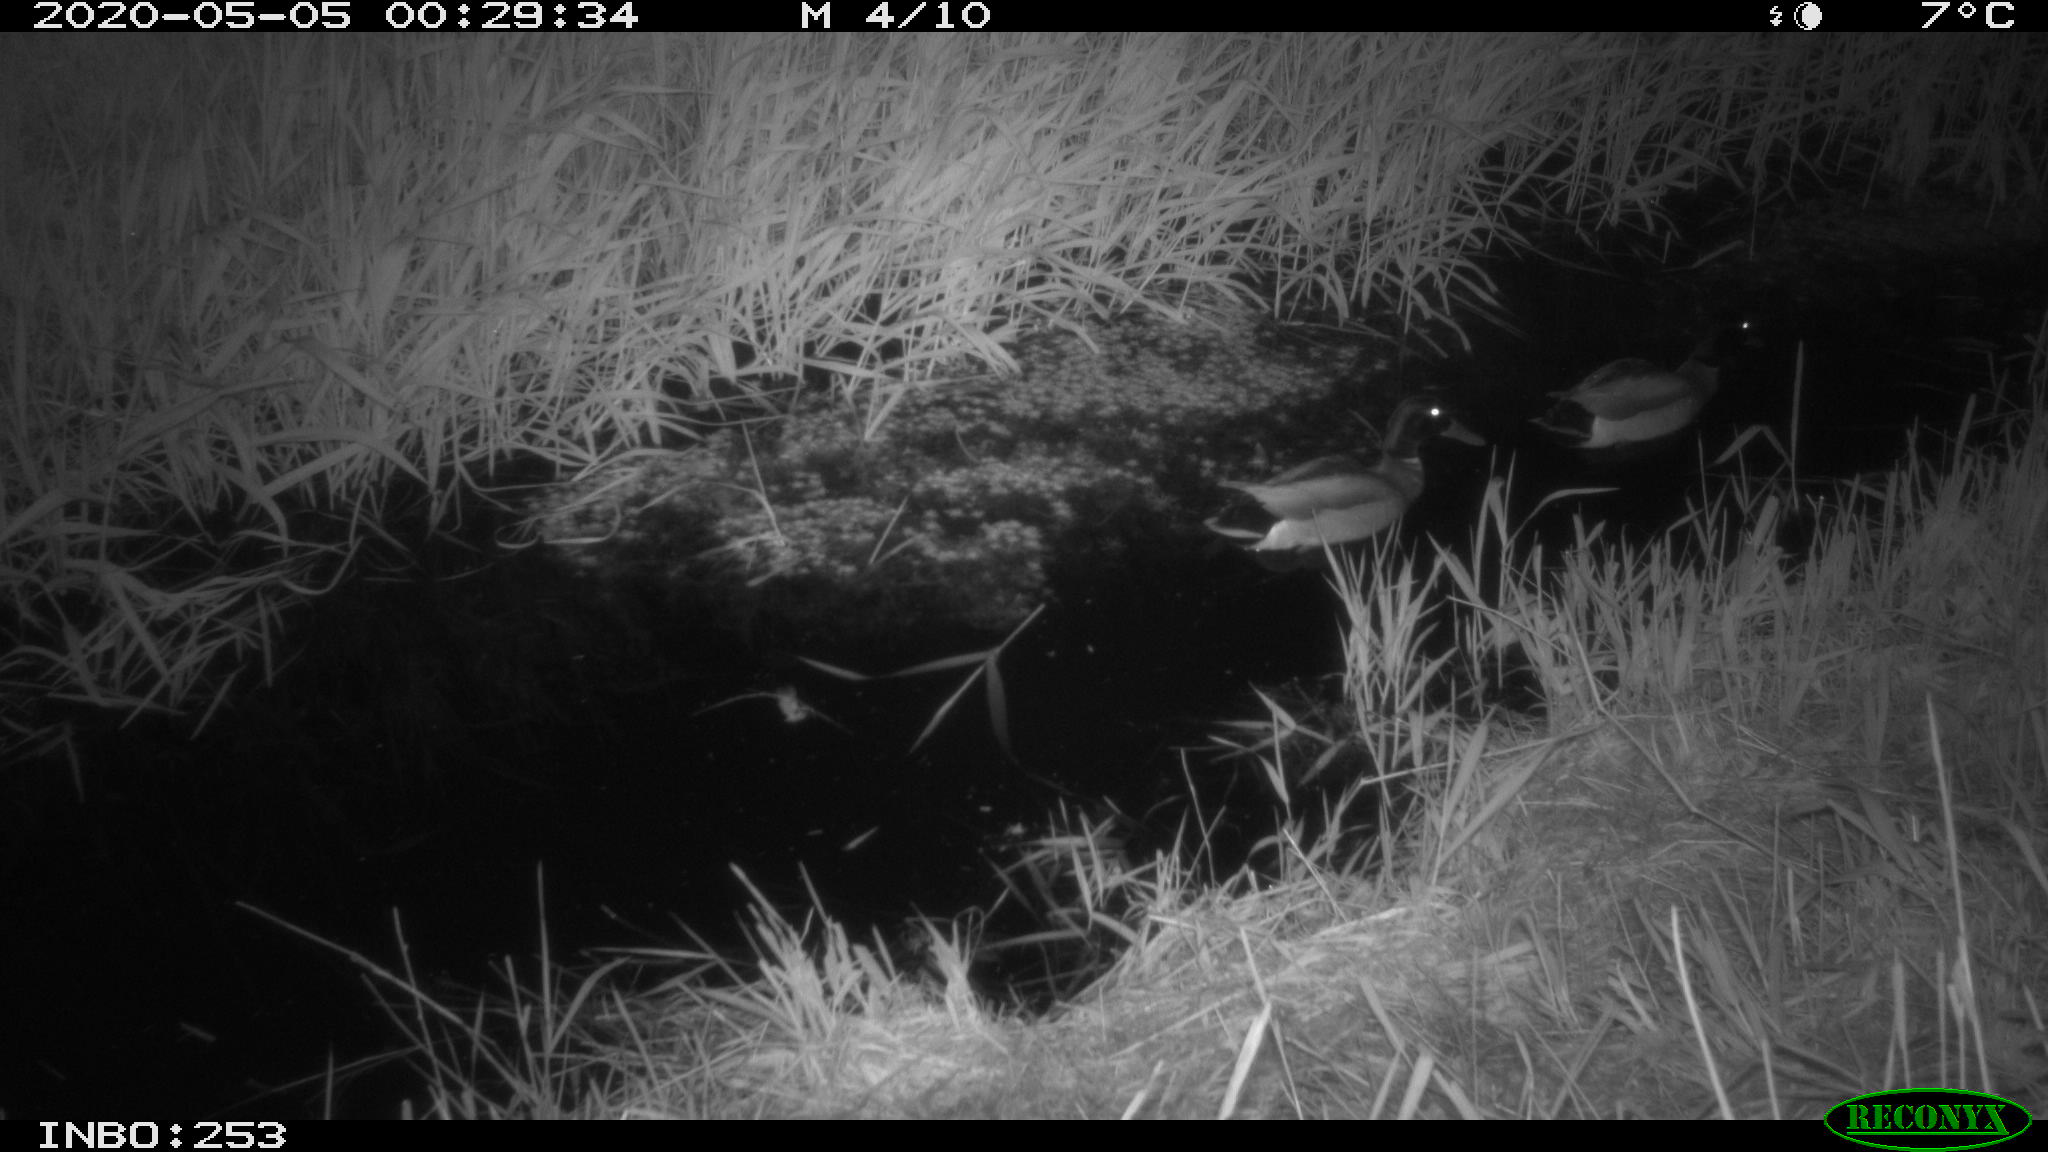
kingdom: Animalia
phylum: Chordata
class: Aves
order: Anseriformes
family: Anatidae
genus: Anas
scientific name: Anas platyrhynchos
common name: Mallard
